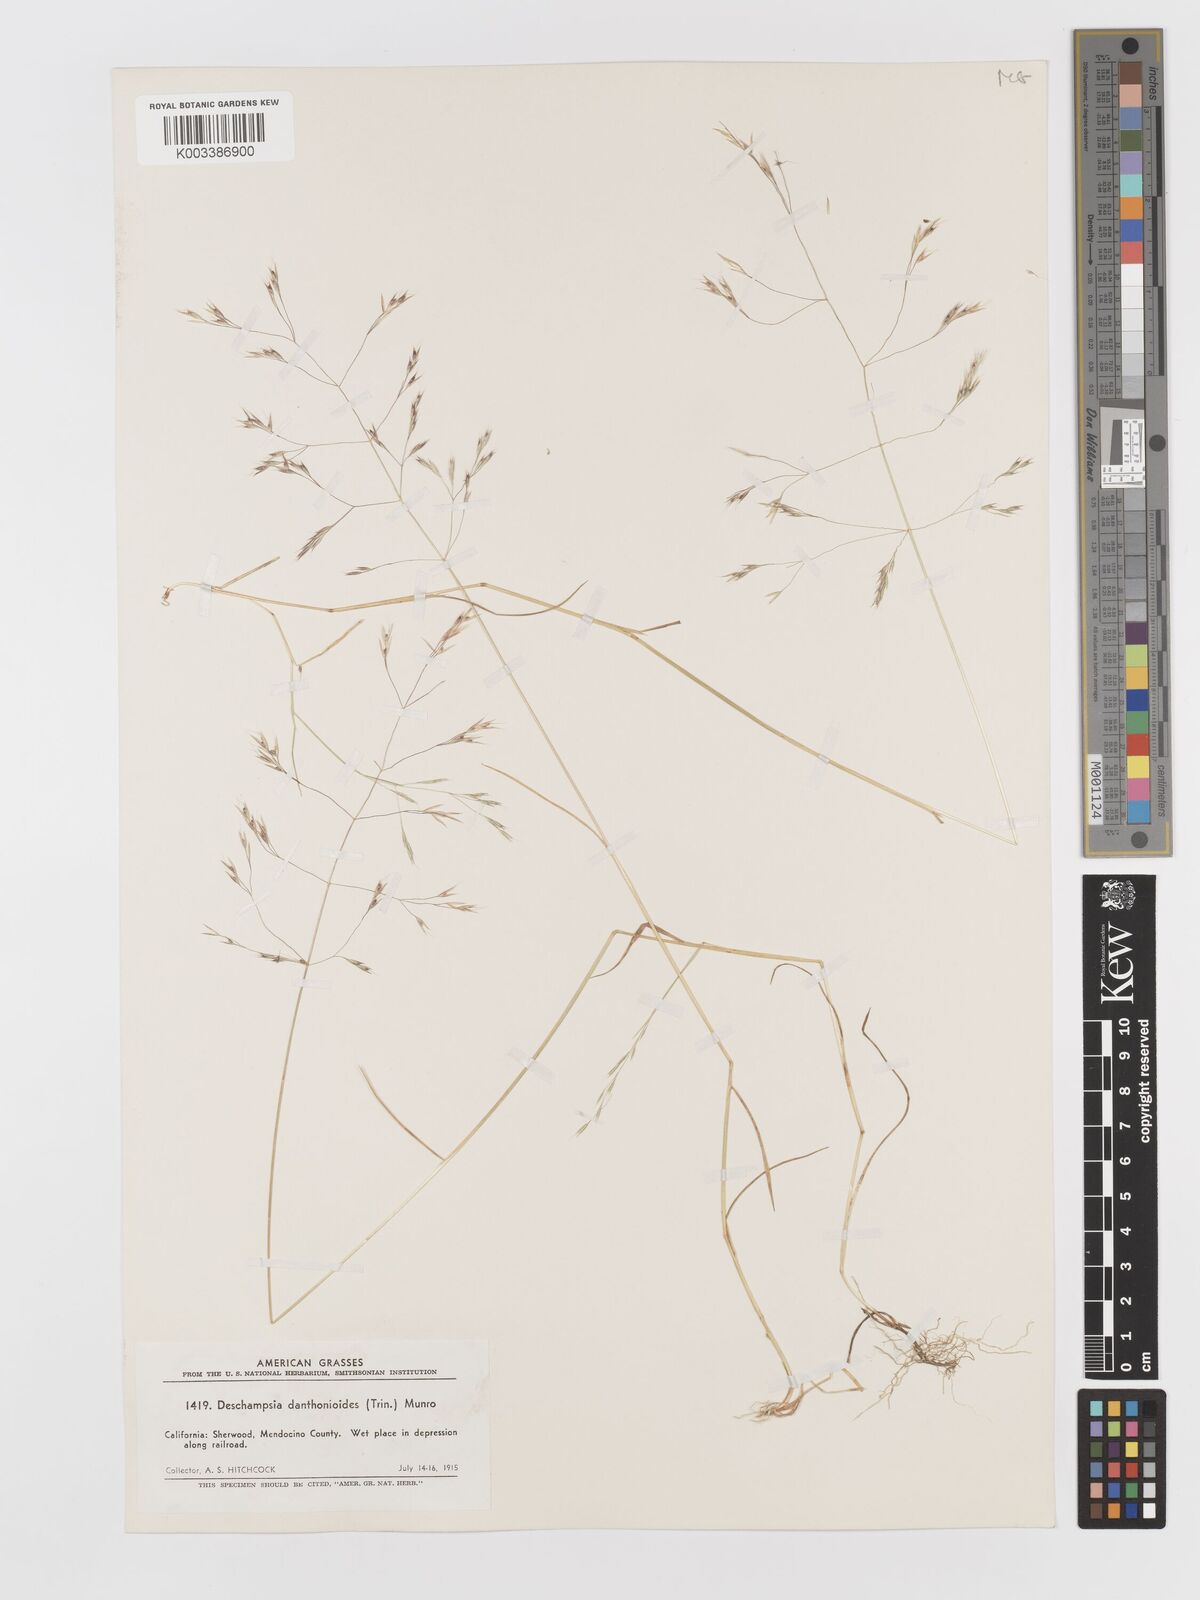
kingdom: Plantae
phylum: Tracheophyta
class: Liliopsida
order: Poales
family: Poaceae
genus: Deschampsia
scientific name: Deschampsia danthonioides
